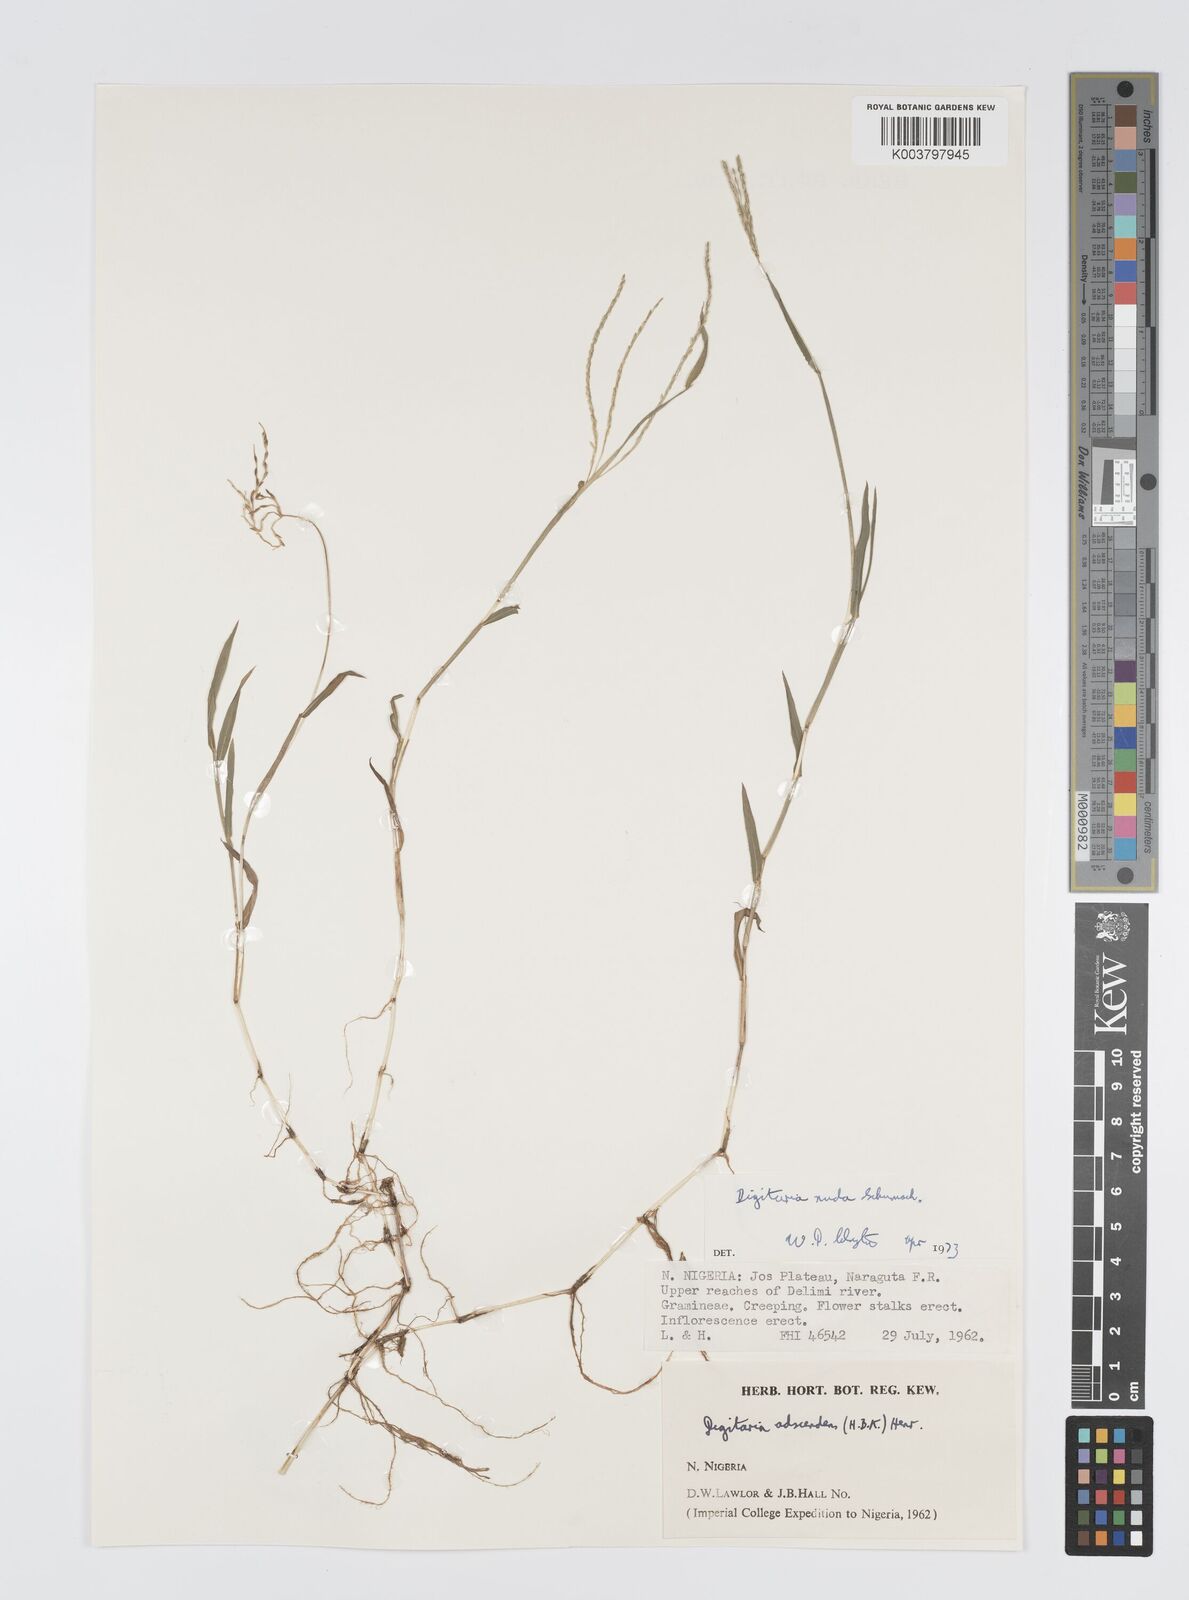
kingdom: Plantae
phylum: Tracheophyta
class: Liliopsida
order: Poales
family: Poaceae
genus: Digitaria
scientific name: Digitaria nuda
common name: Naked crabgrass
